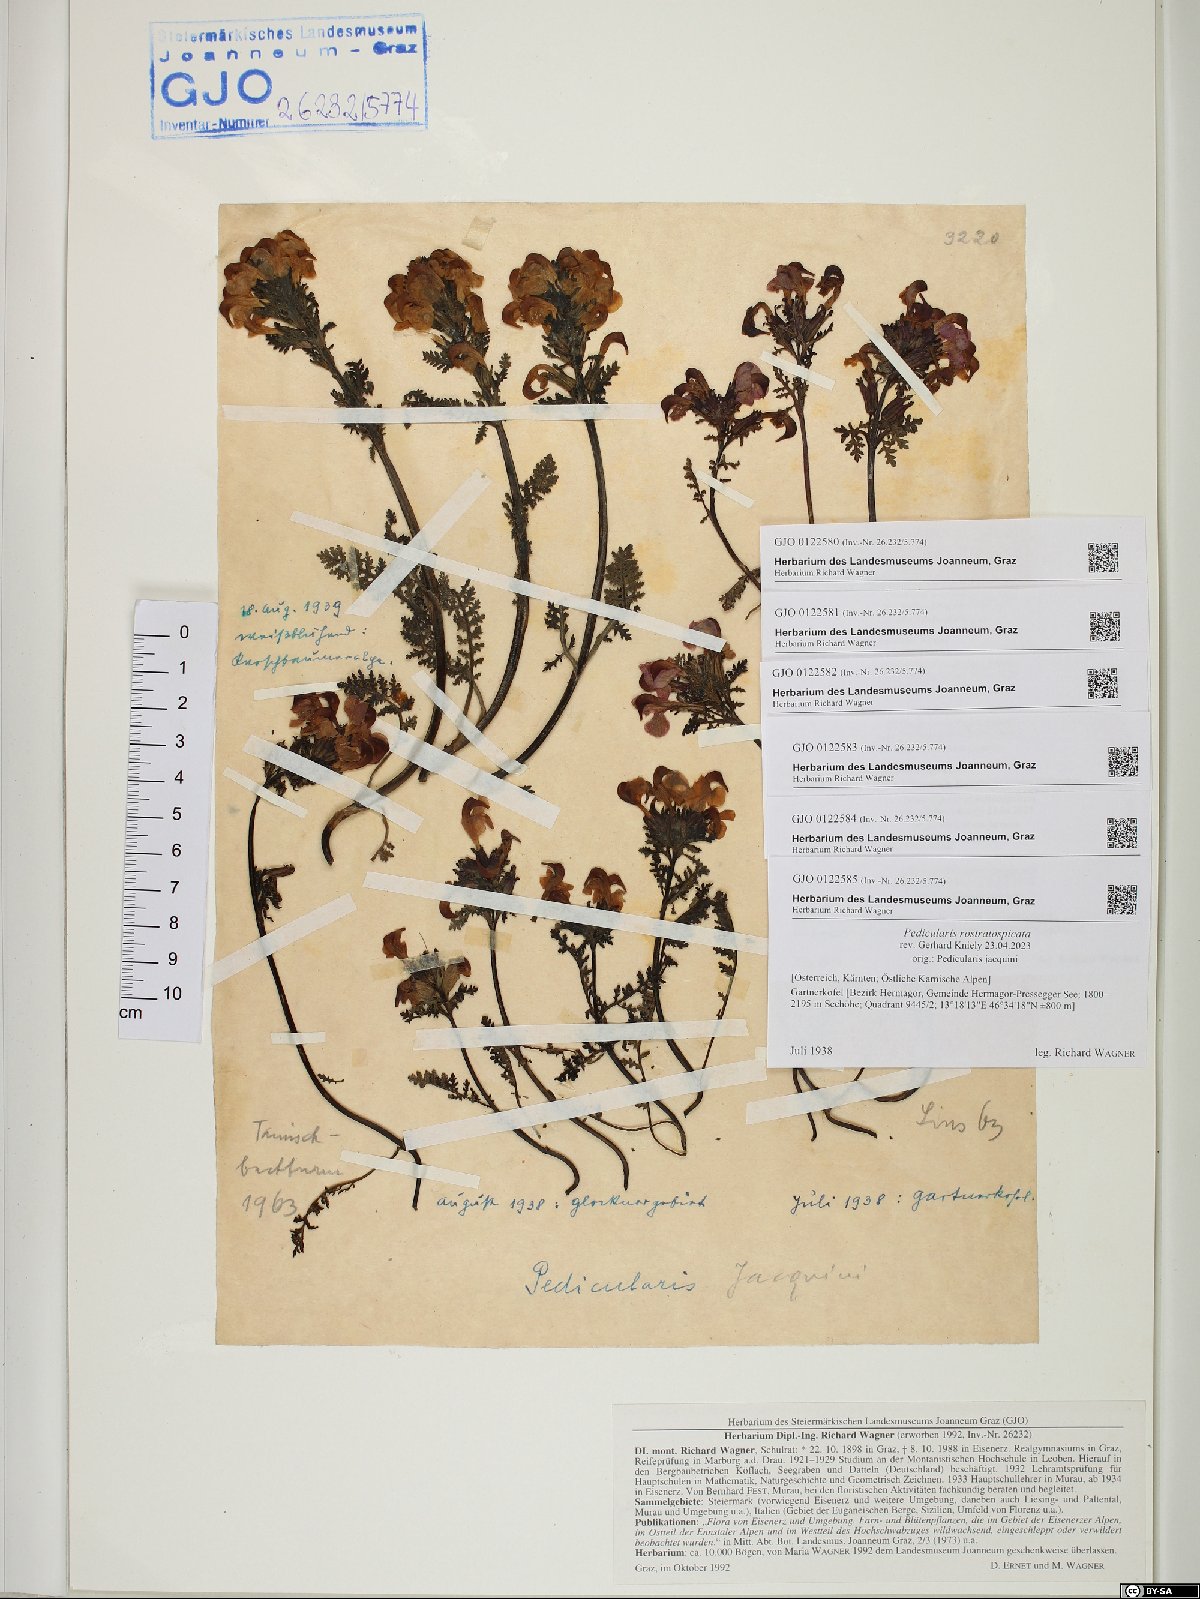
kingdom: Plantae
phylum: Tracheophyta
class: Magnoliopsida
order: Lamiales
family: Orobanchaceae
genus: Pedicularis
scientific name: Pedicularis rostratocapitata
